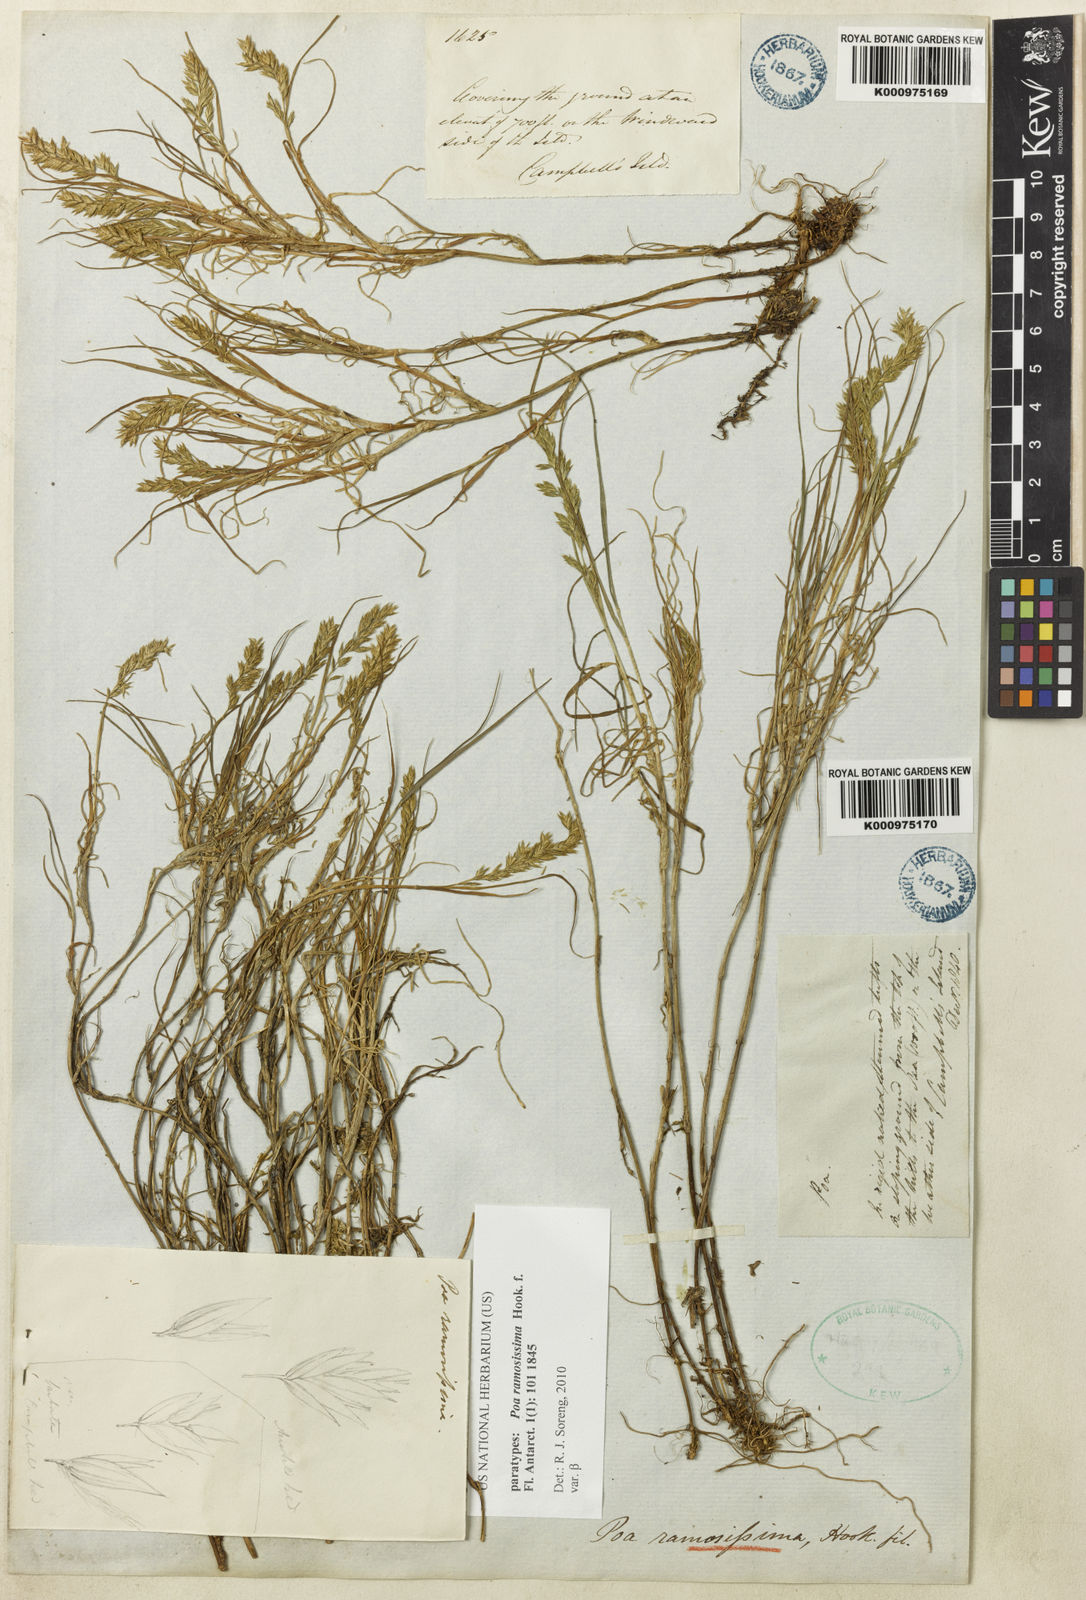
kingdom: Plantae
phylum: Tracheophyta
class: Liliopsida
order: Poales
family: Poaceae
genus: Poa
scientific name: Poa ramosissima
